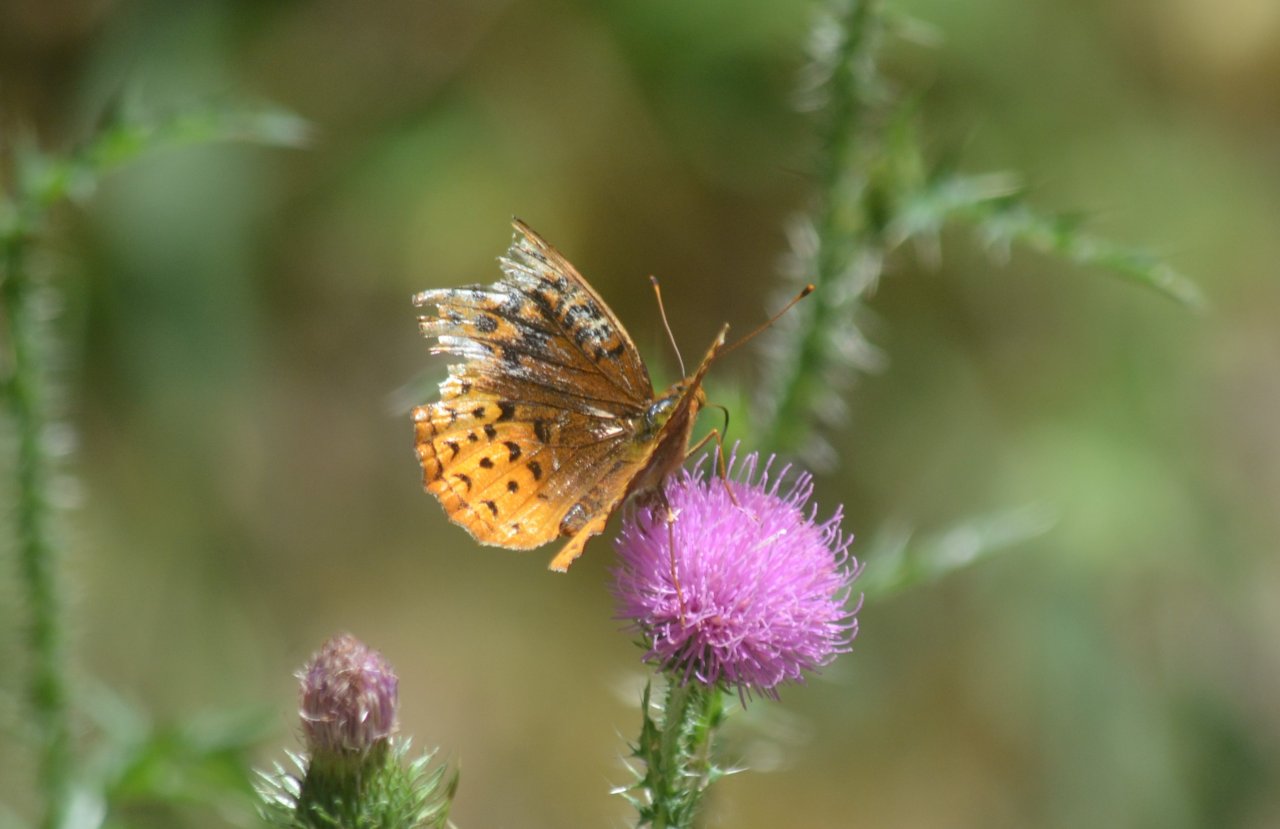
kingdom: Animalia
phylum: Arthropoda
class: Insecta
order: Lepidoptera
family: Nymphalidae
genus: Speyeria
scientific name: Speyeria cybele
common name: Great Spangled Fritillary
